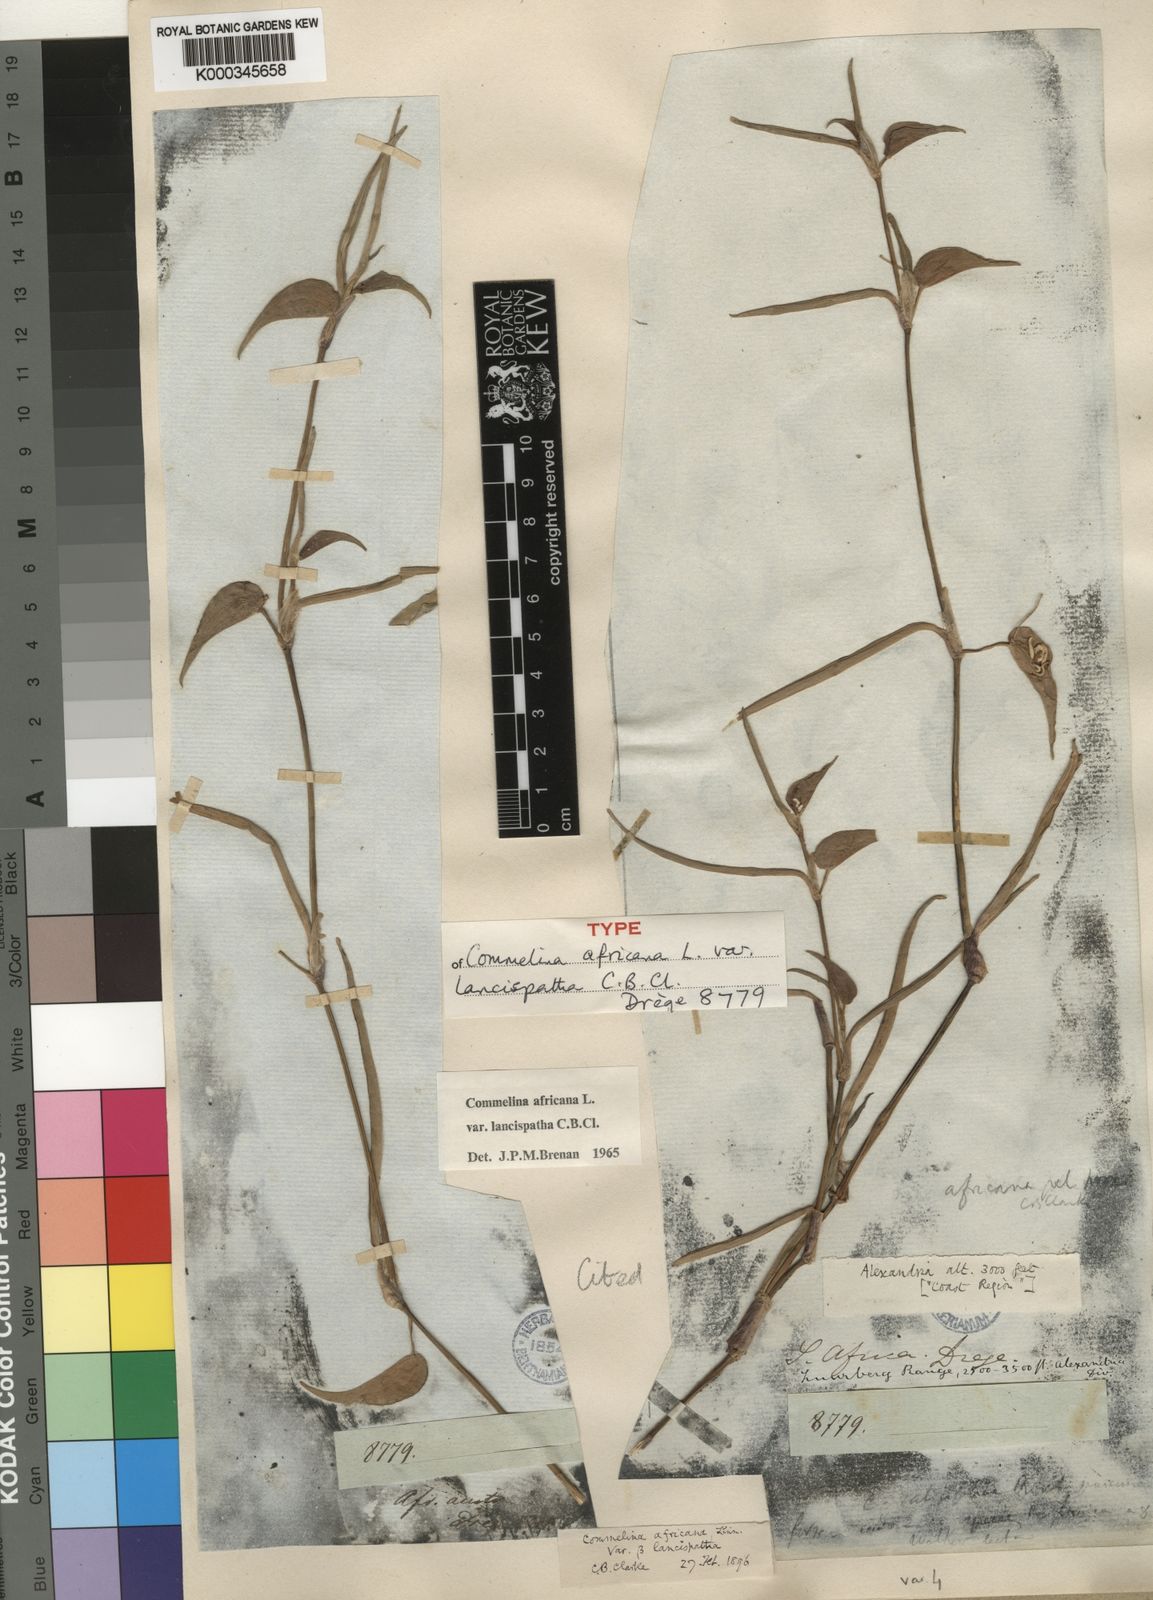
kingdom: Plantae
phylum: Tracheophyta
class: Liliopsida
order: Commelinales
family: Commelinaceae
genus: Commelina
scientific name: Commelina africana
